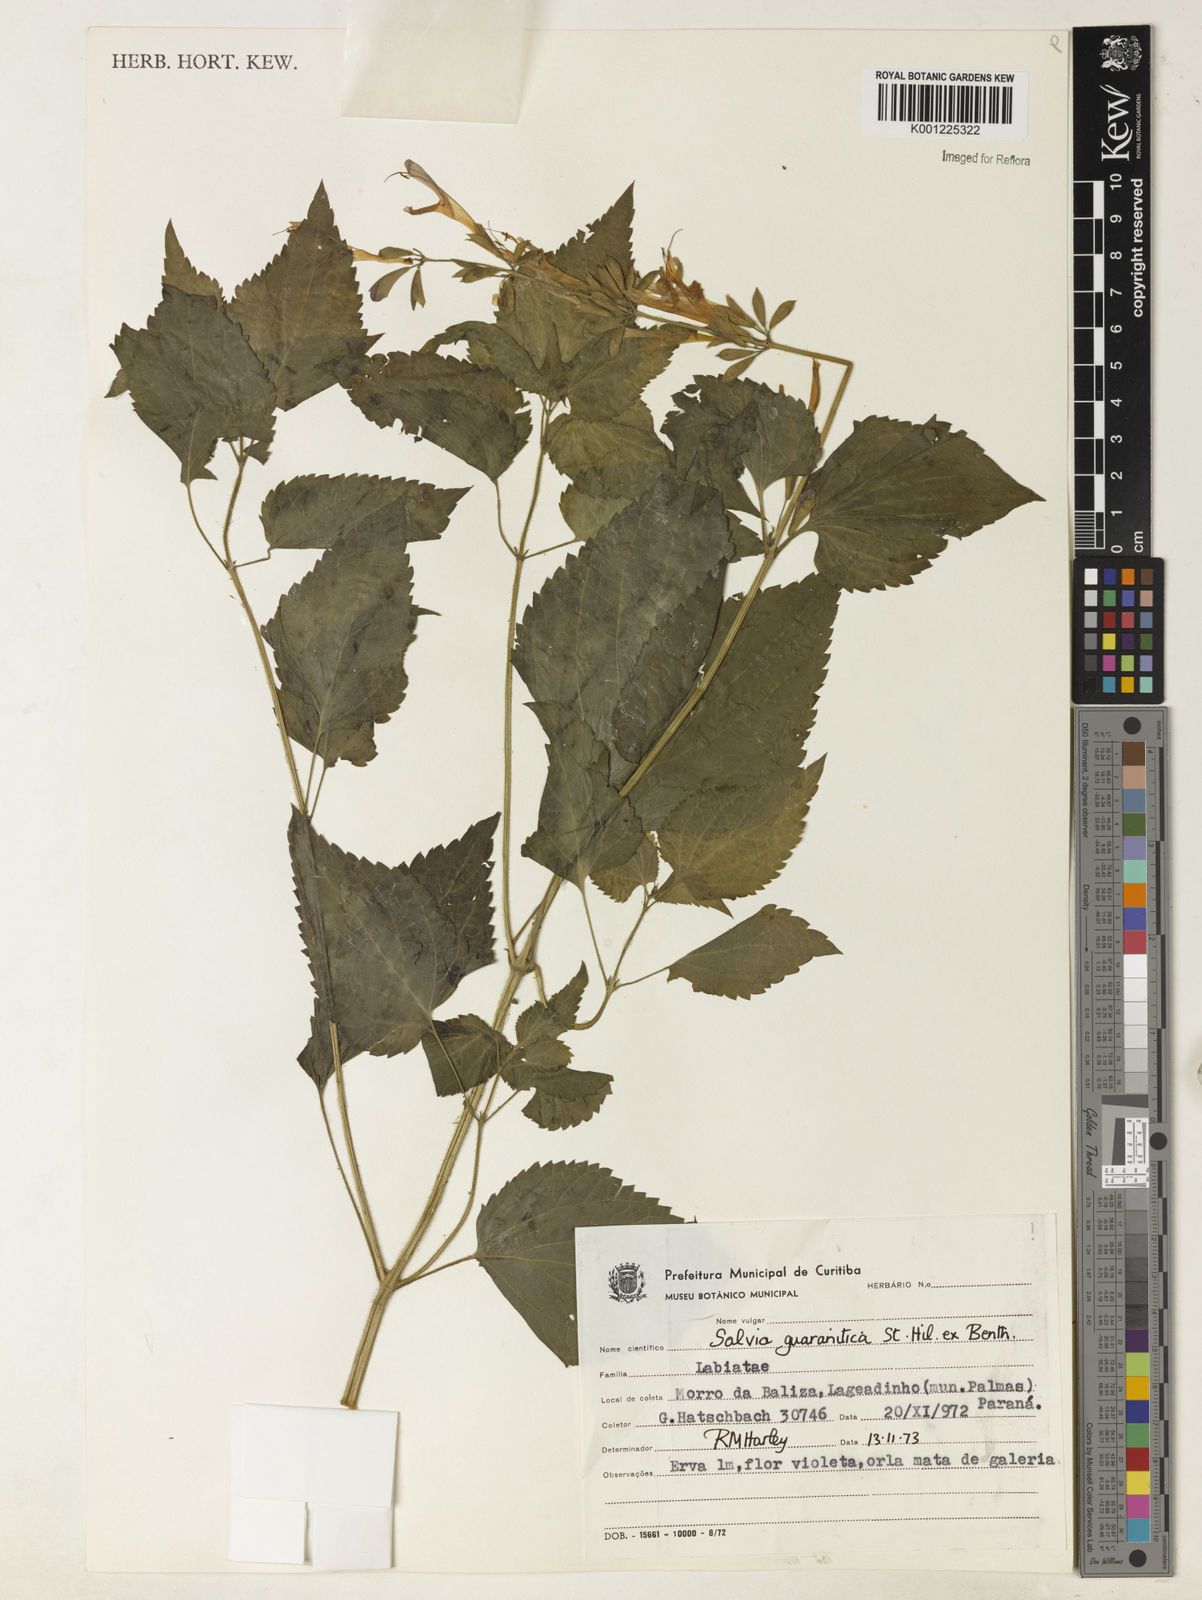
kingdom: Plantae
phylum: Tracheophyta
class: Magnoliopsida
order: Lamiales
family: Lamiaceae
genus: Salvia
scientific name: Salvia guaranitica
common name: Anise-scented sage
